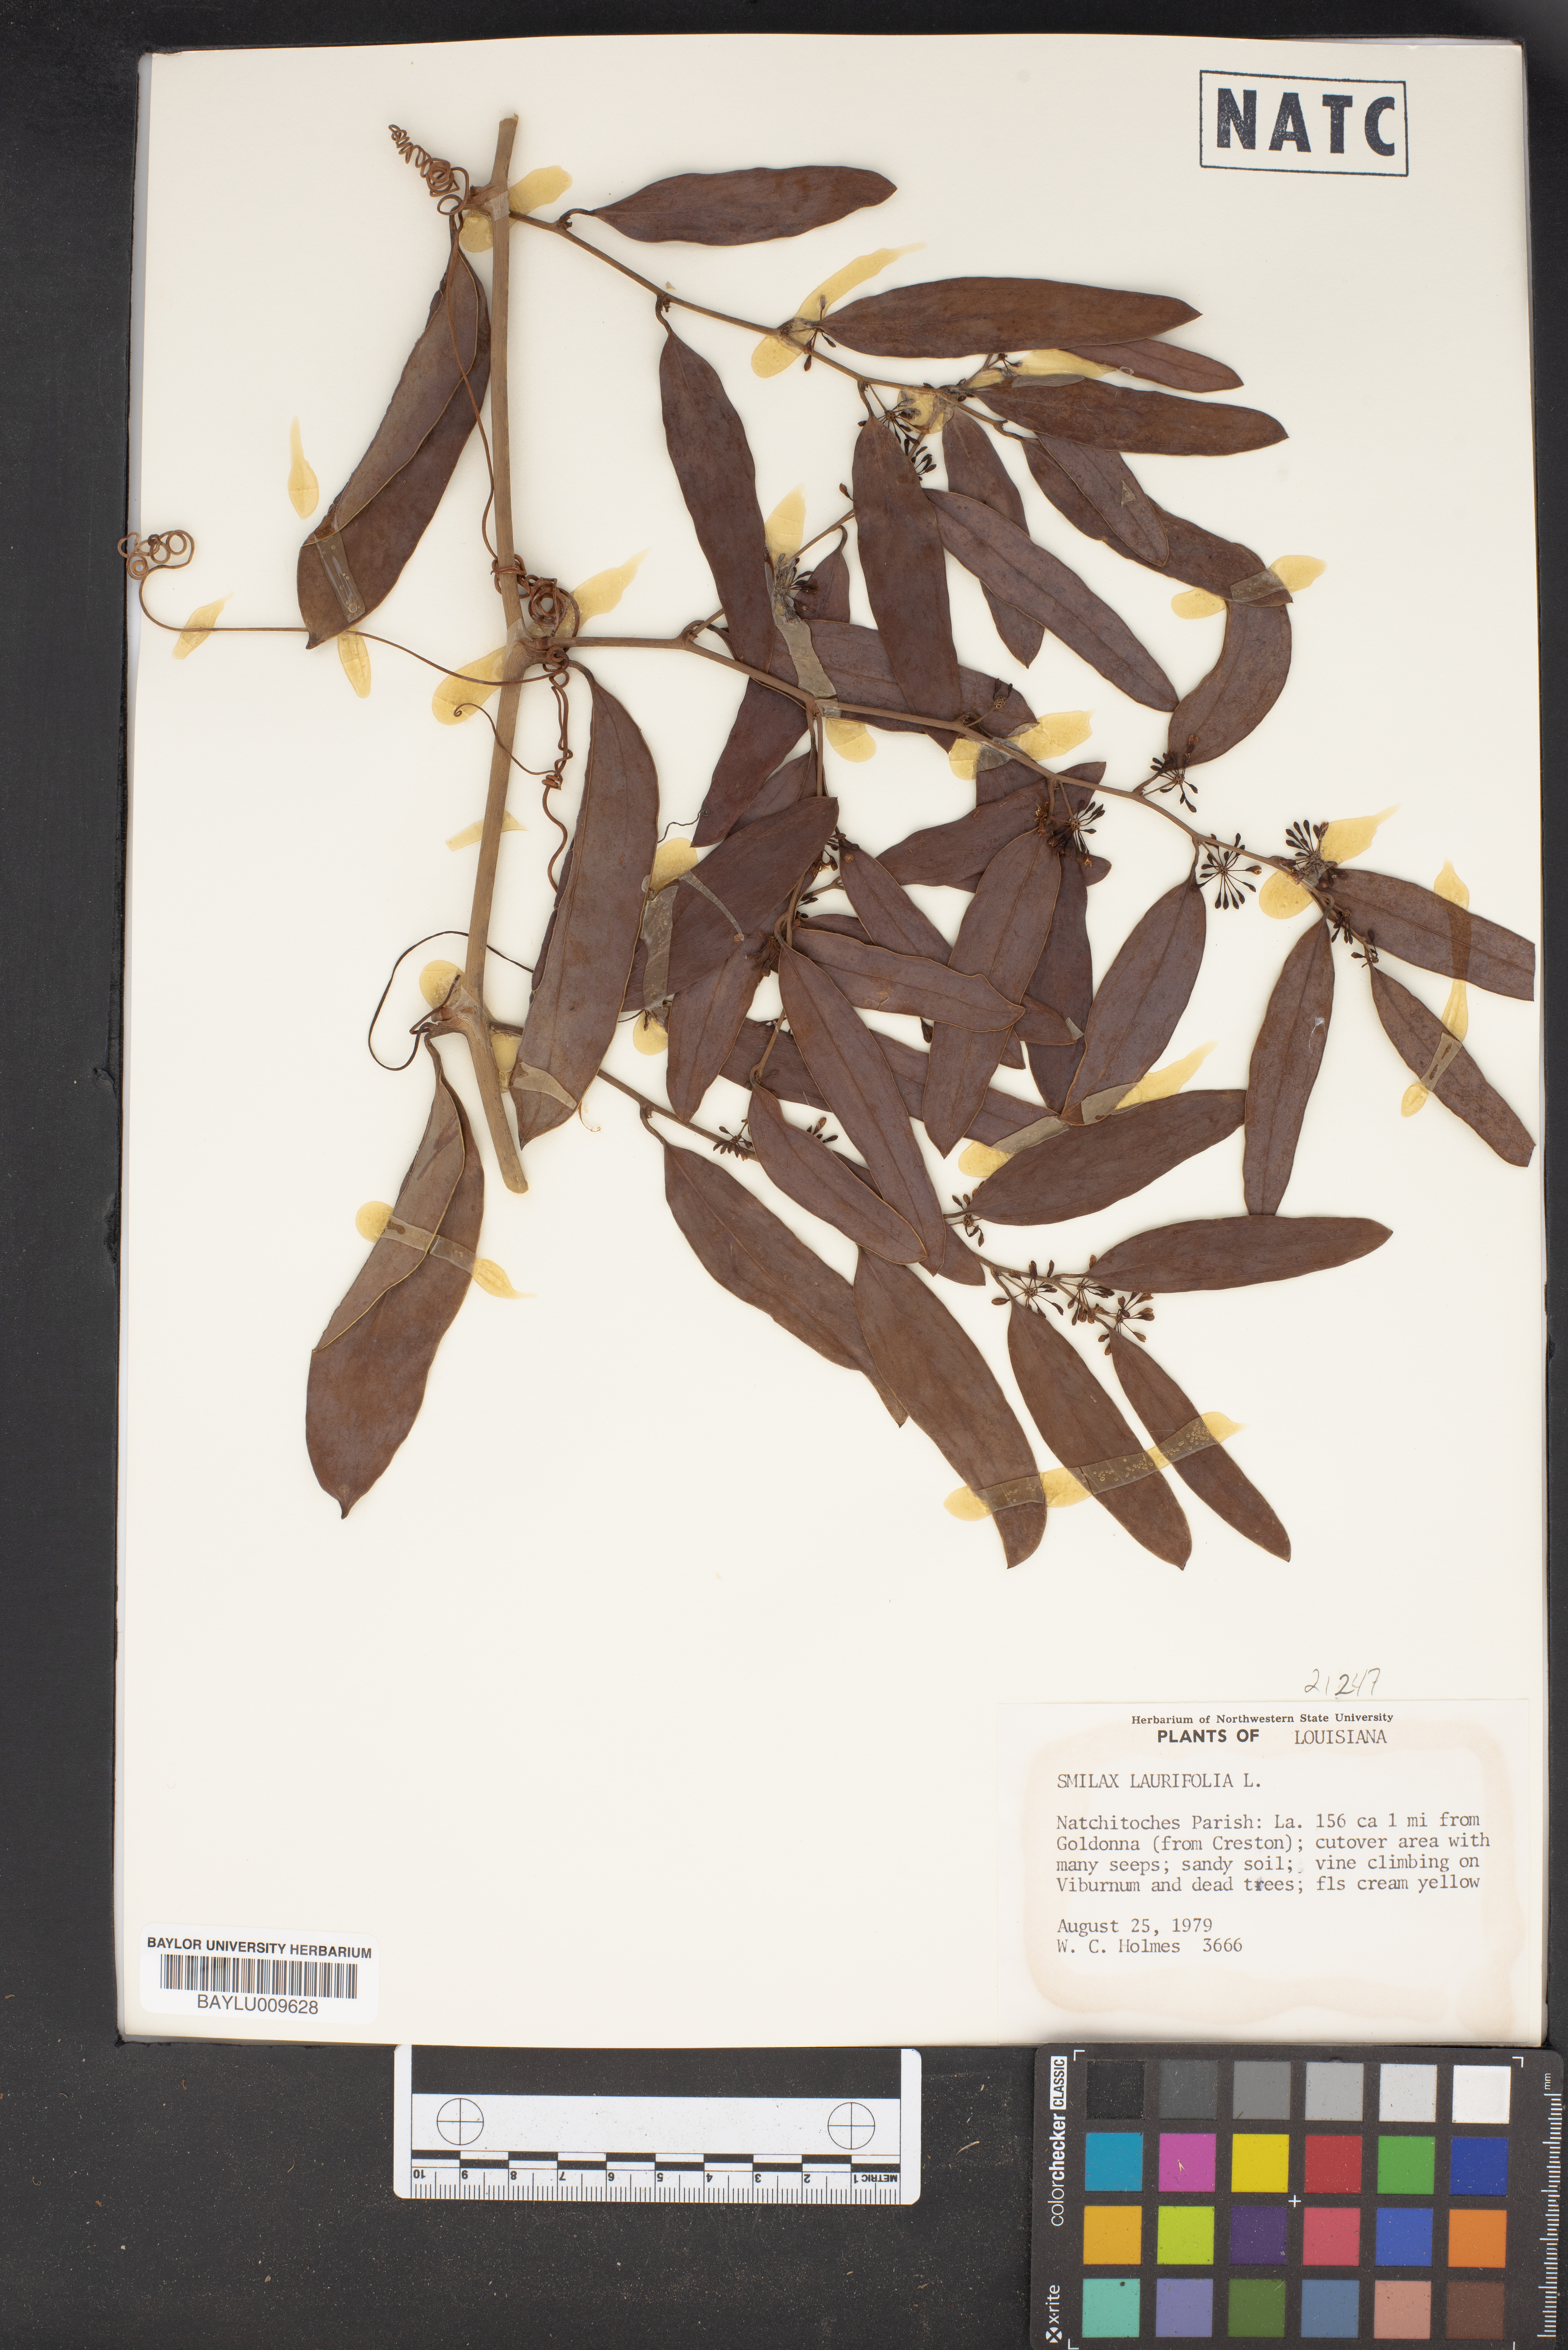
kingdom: Plantae
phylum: Tracheophyta
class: Liliopsida
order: Liliales
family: Smilacaceae
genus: Smilax
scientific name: Smilax laurifolia
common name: Bamboovine
